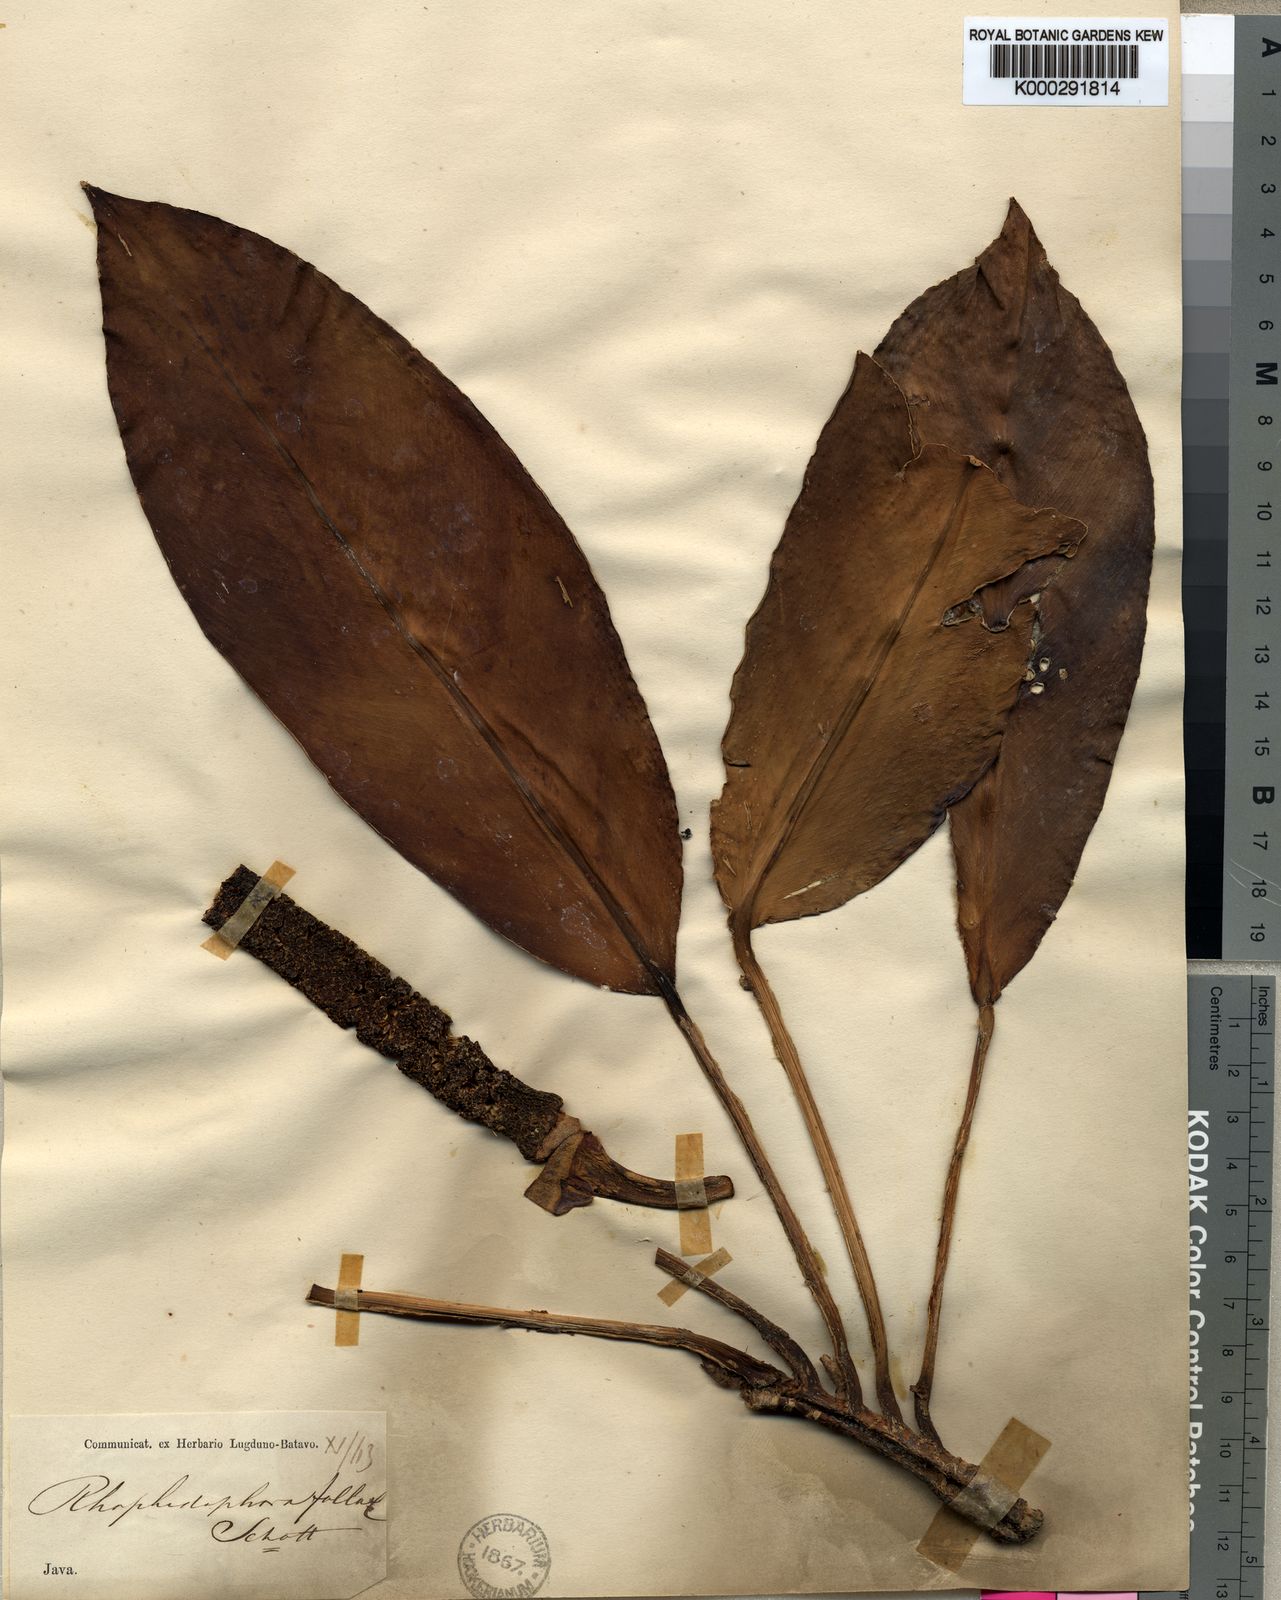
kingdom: Plantae
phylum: Tracheophyta
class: Liliopsida
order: Alismatales
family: Araceae
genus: Rhaphidophora
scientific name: Rhaphidophora montana
